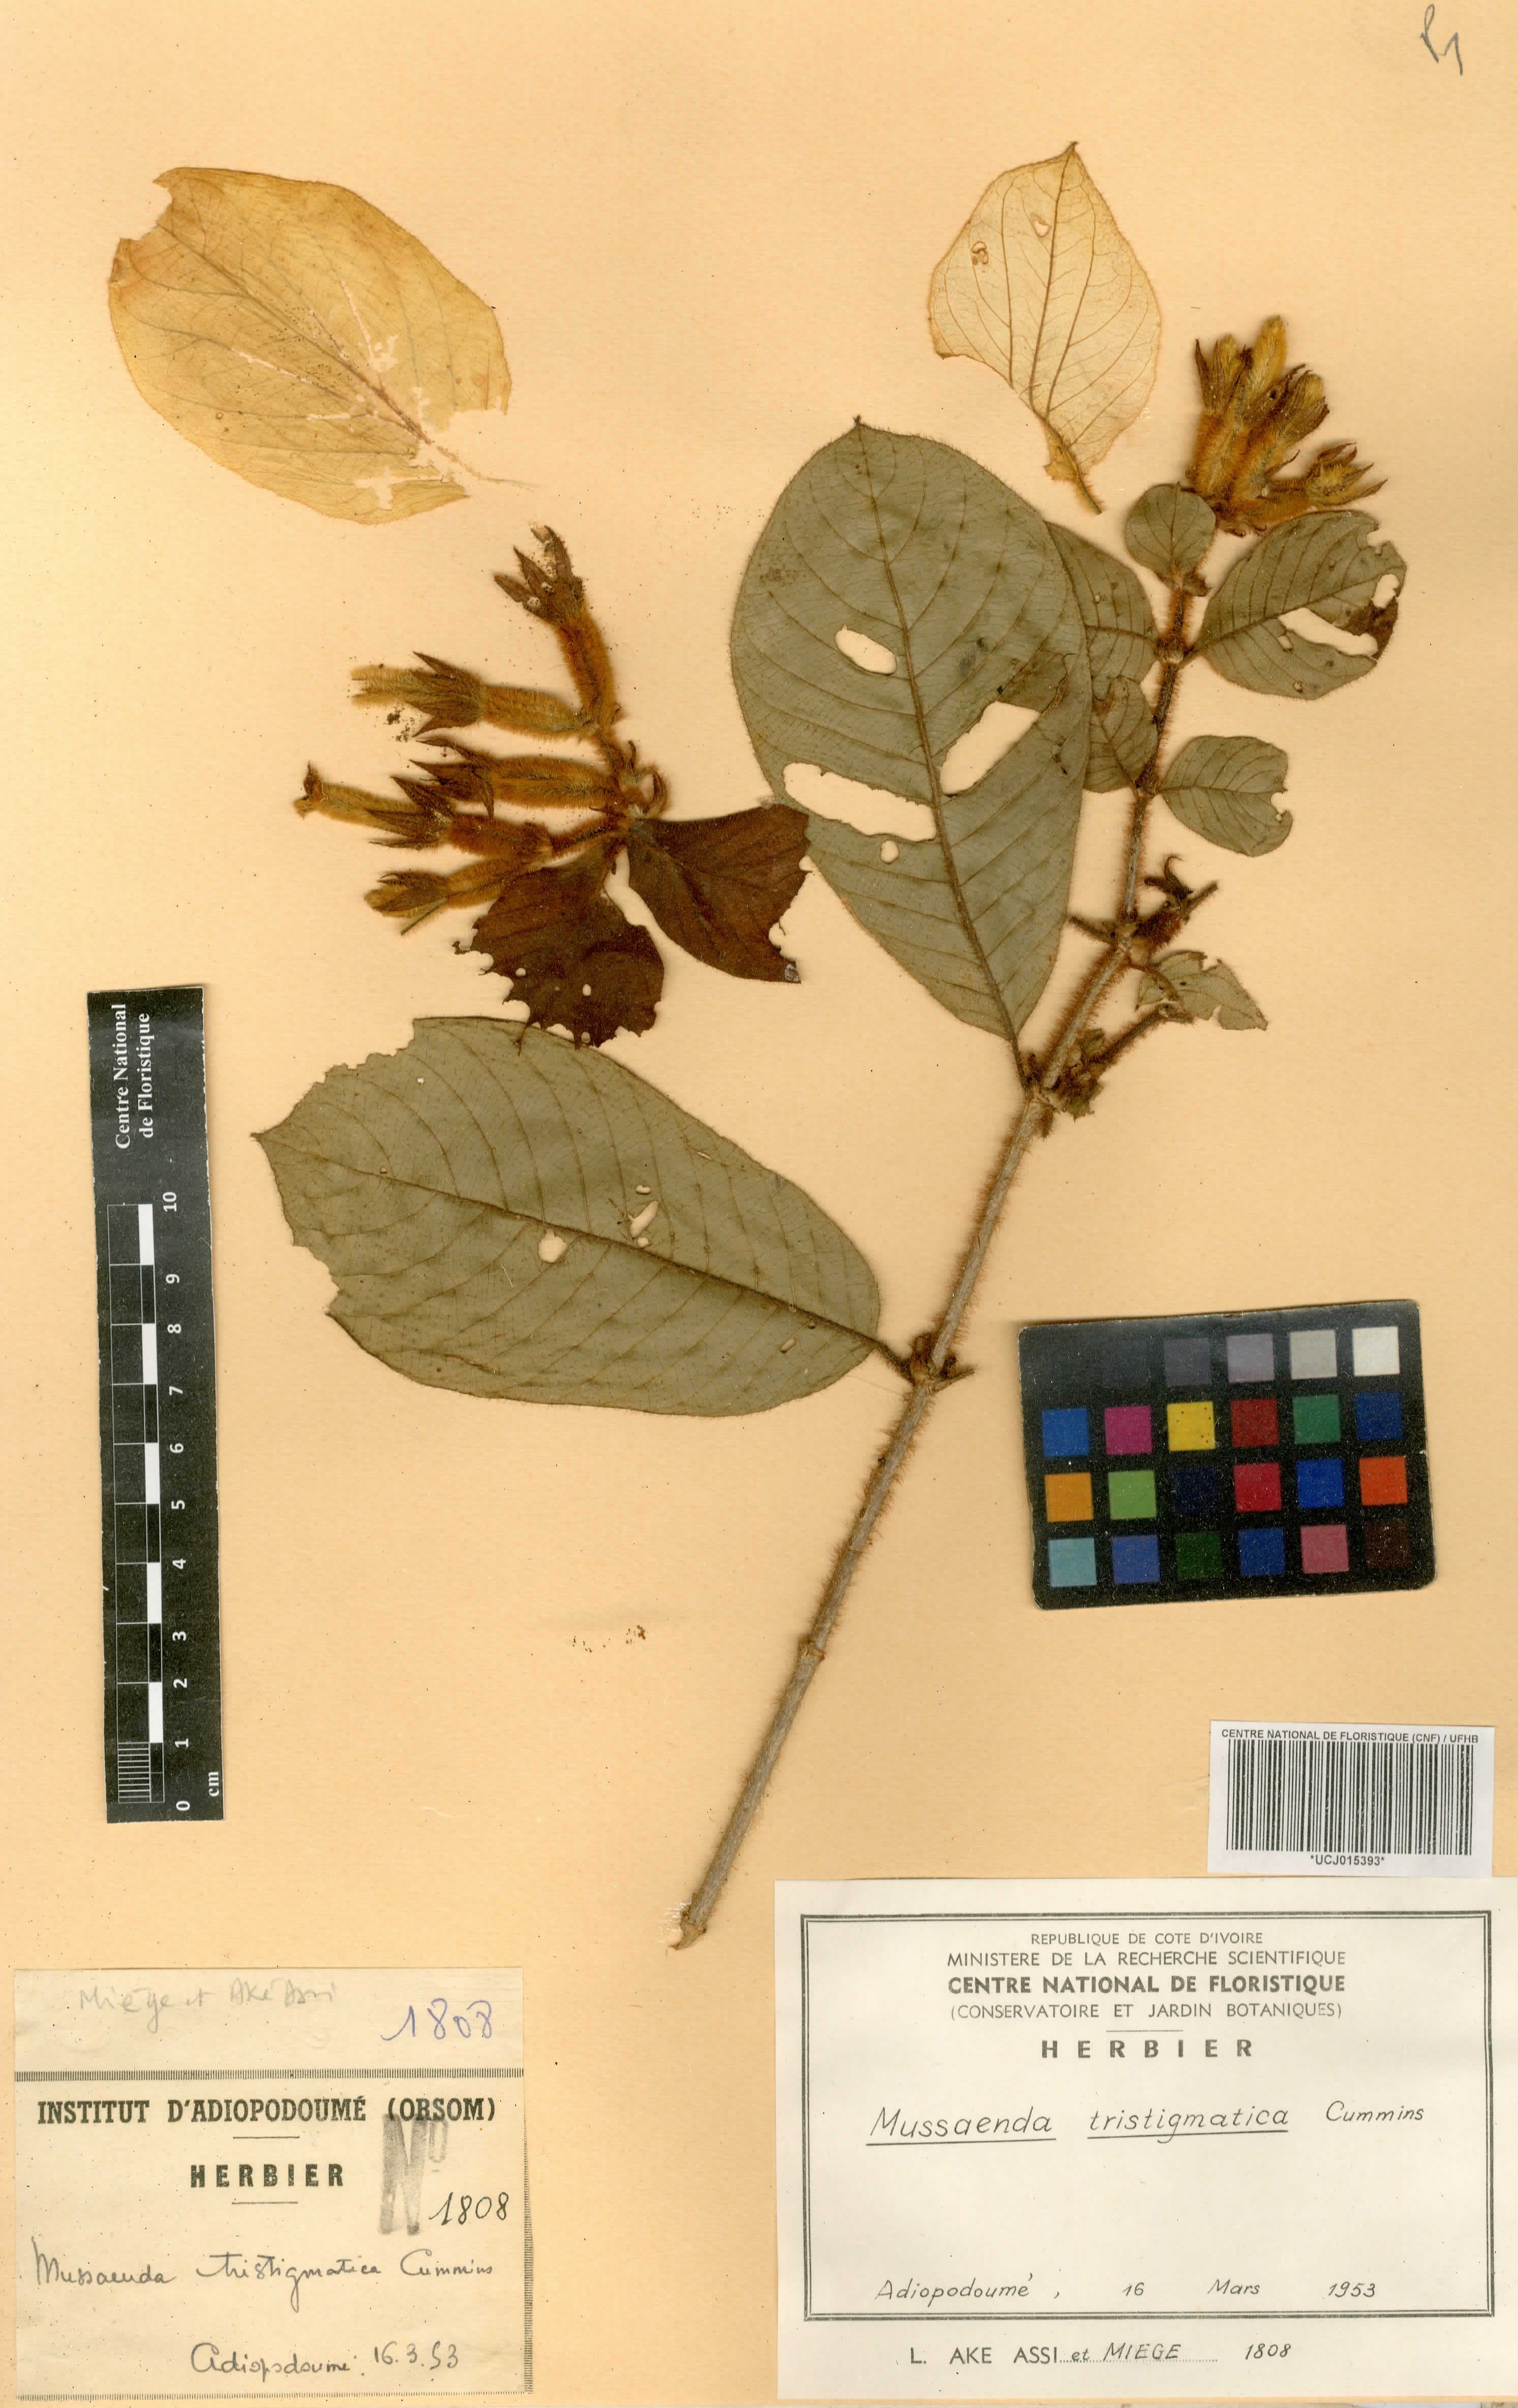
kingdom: Plantae
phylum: Tracheophyta
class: Magnoliopsida
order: Gentianales
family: Rubiaceae
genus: Mussaenda
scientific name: Mussaenda tristigmatica
